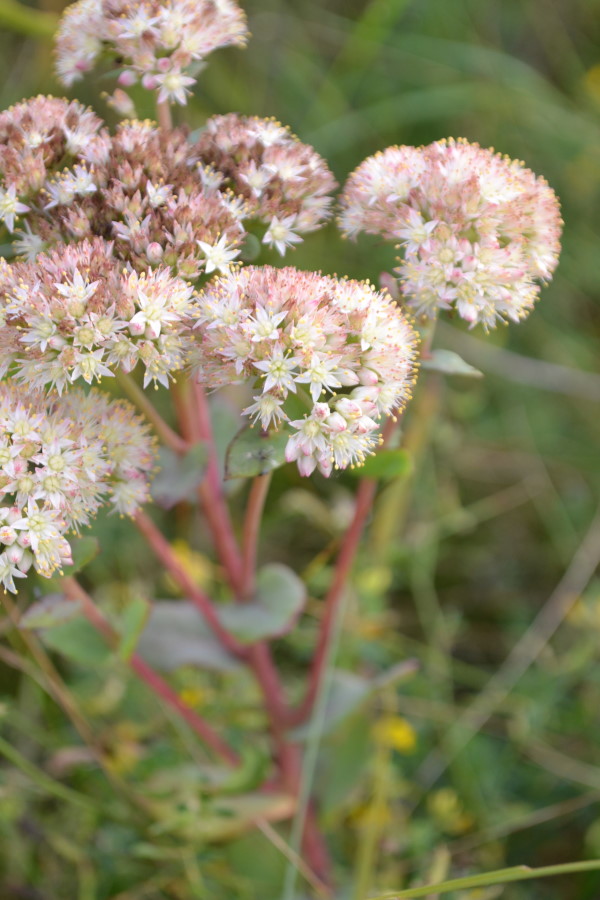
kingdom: Plantae
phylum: Tracheophyta
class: Magnoliopsida
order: Saxifragales
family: Crassulaceae
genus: Hylotelephium
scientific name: Hylotelephium telephium
